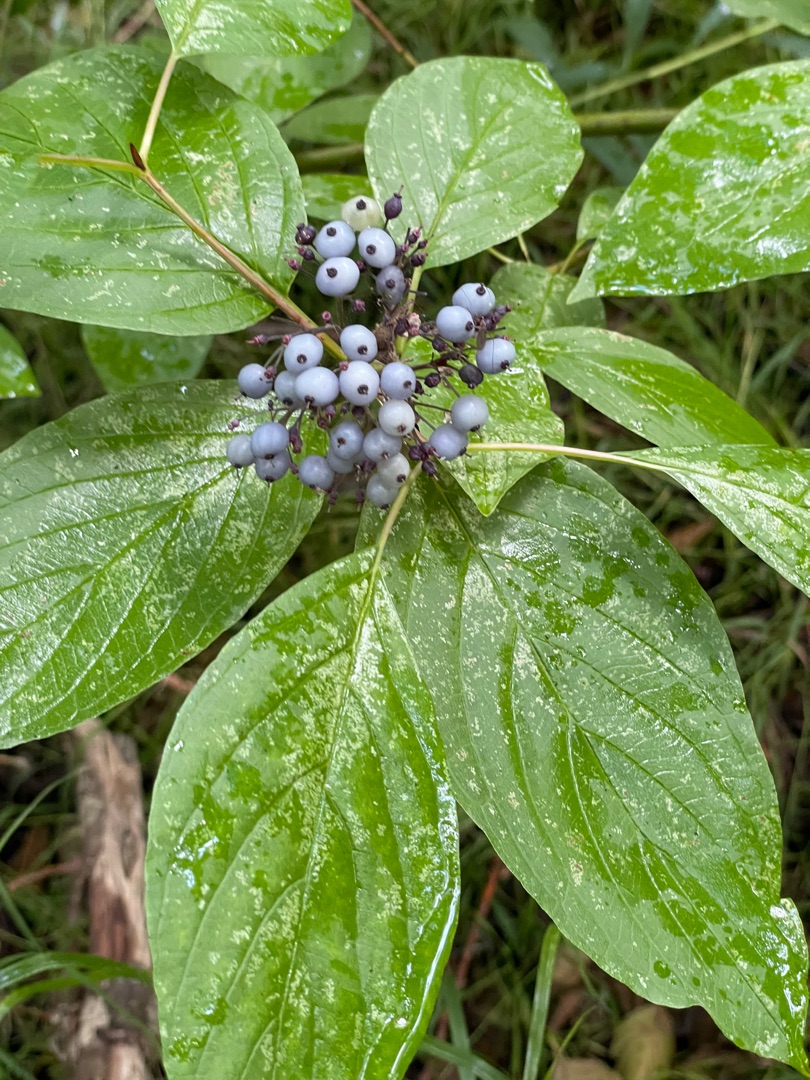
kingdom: Plantae
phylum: Tracheophyta
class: Magnoliopsida
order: Cornales
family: Cornaceae
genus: Cornus
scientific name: Cornus sericea
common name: Krybende kornel
